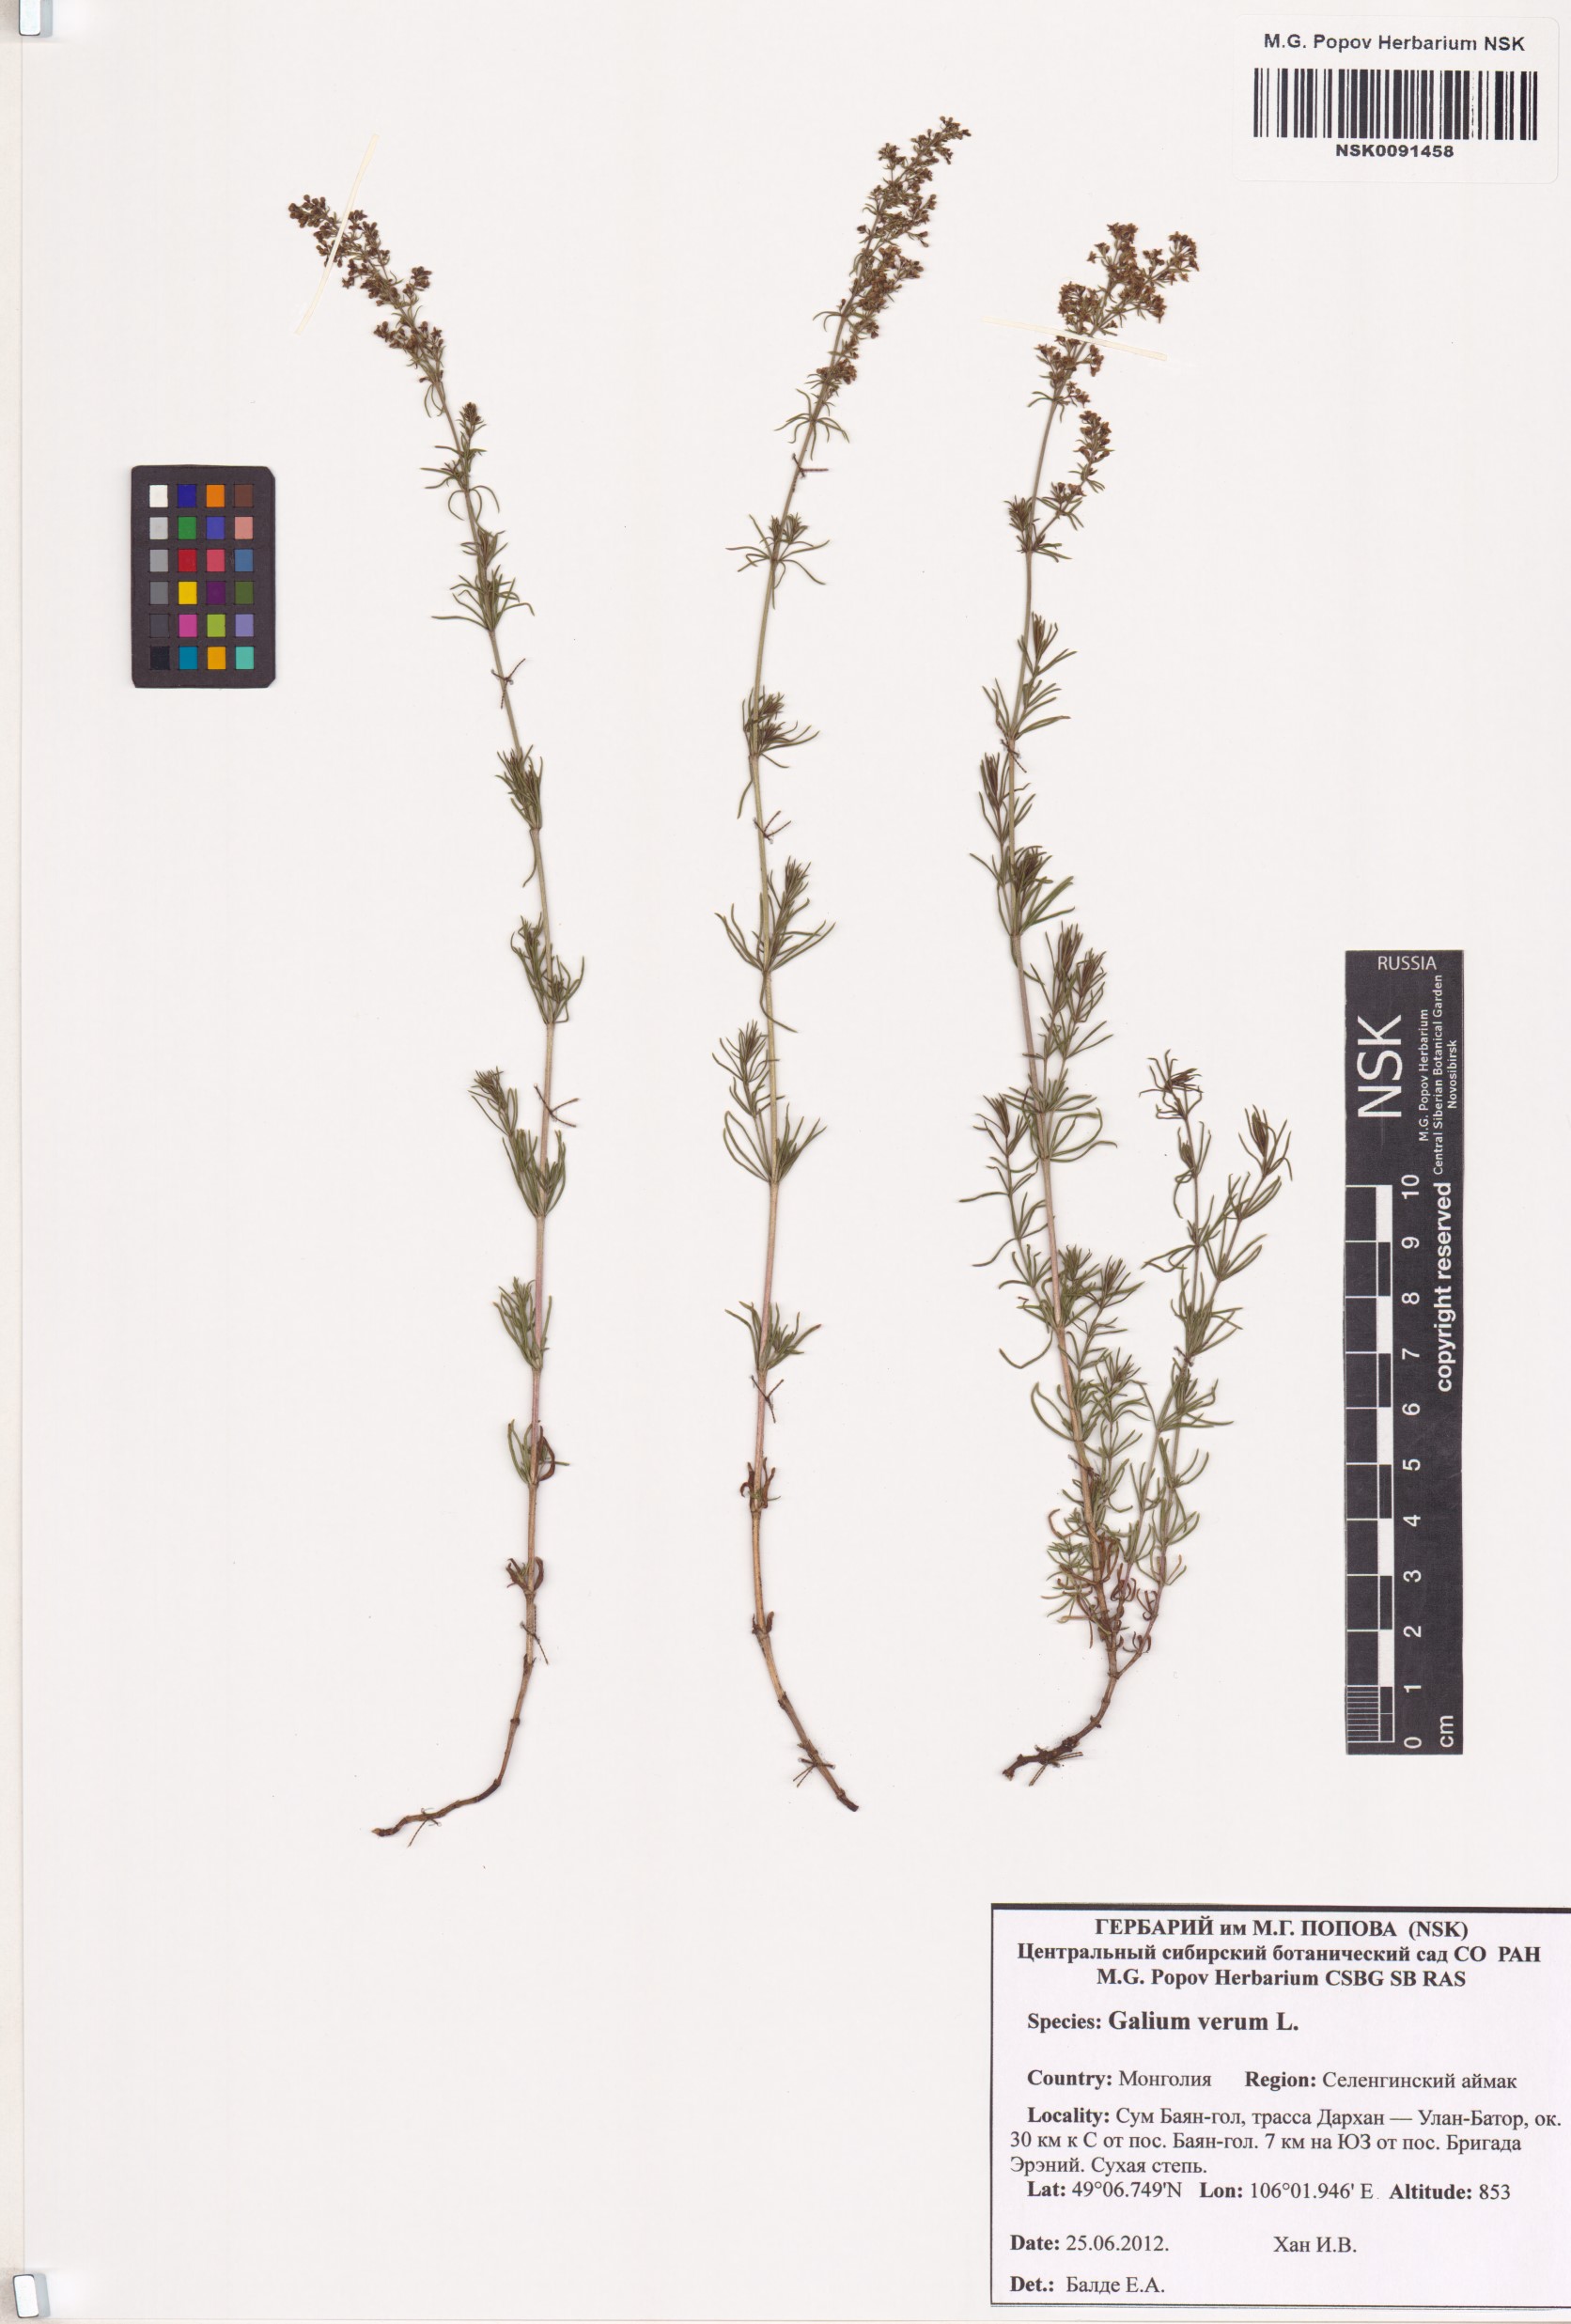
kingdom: Plantae
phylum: Tracheophyta
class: Magnoliopsida
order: Gentianales
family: Rubiaceae
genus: Galium
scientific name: Galium verum
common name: Lady's bedstraw
